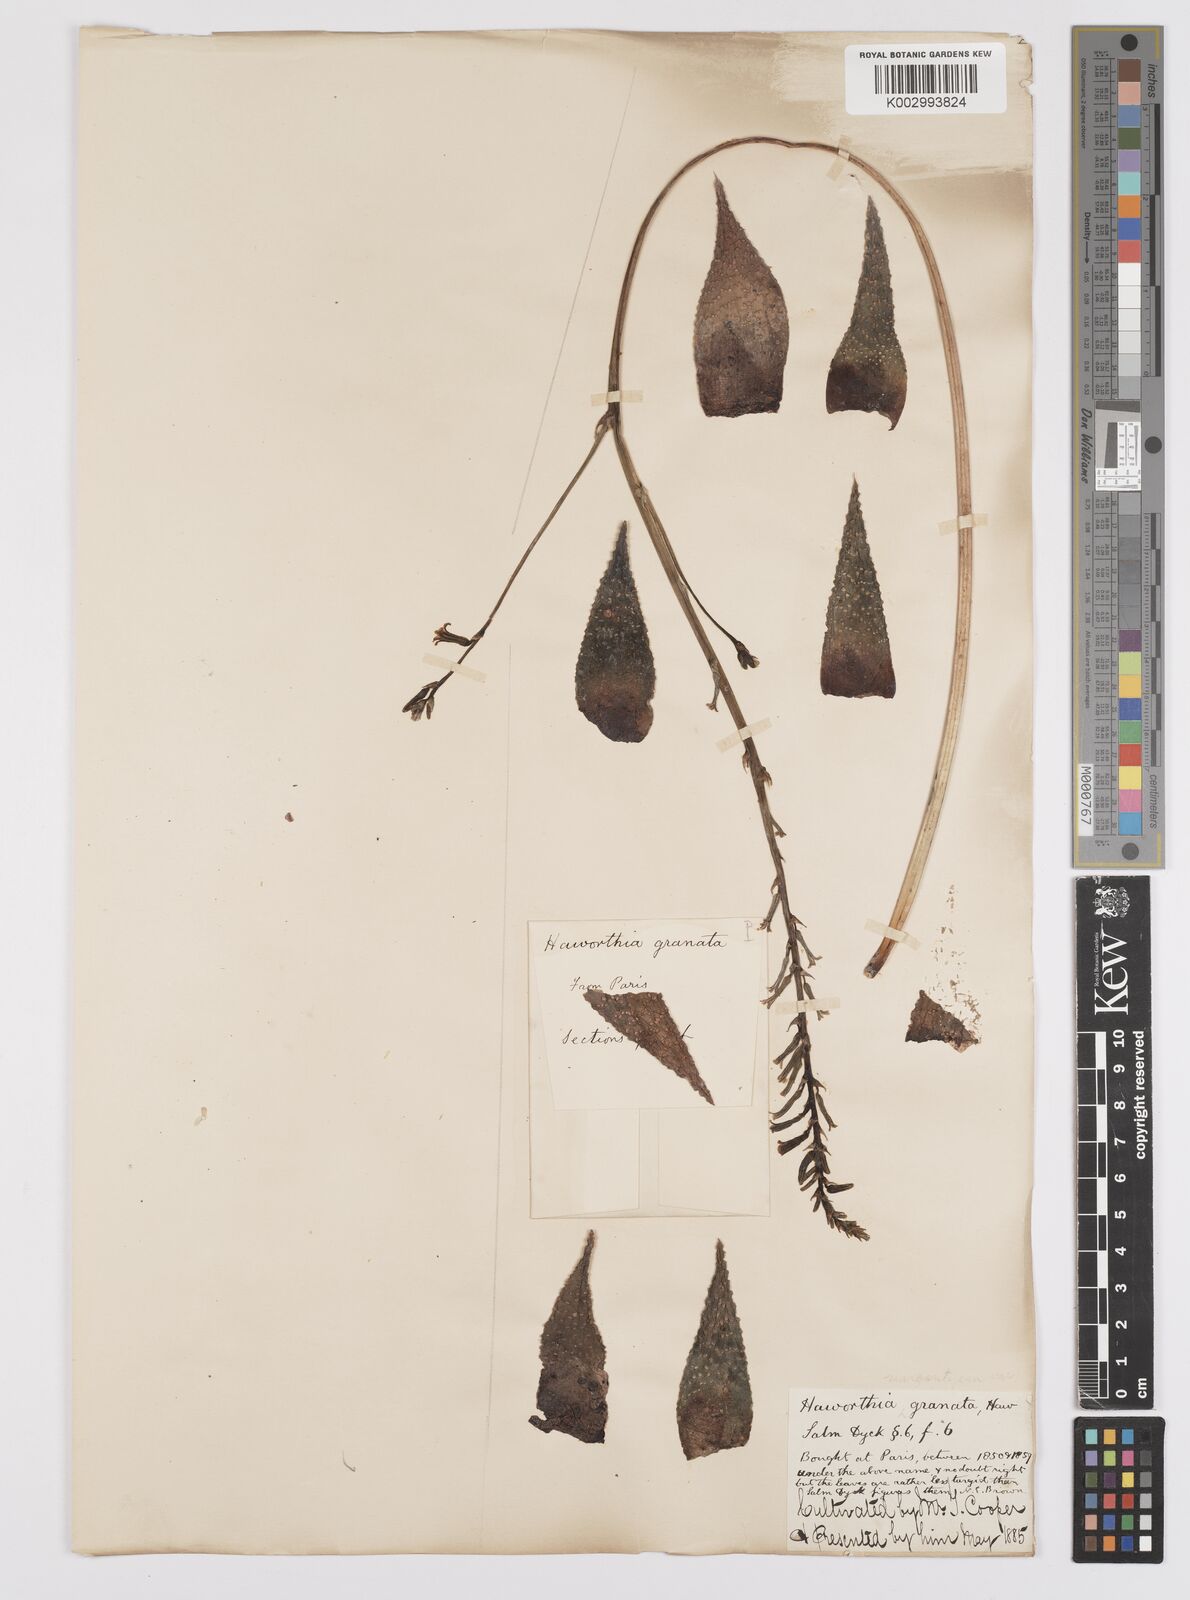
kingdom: Plantae
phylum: Tracheophyta
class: Liliopsida
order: Asparagales
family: Asphodelaceae
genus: Tulista
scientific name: Tulista pumila
